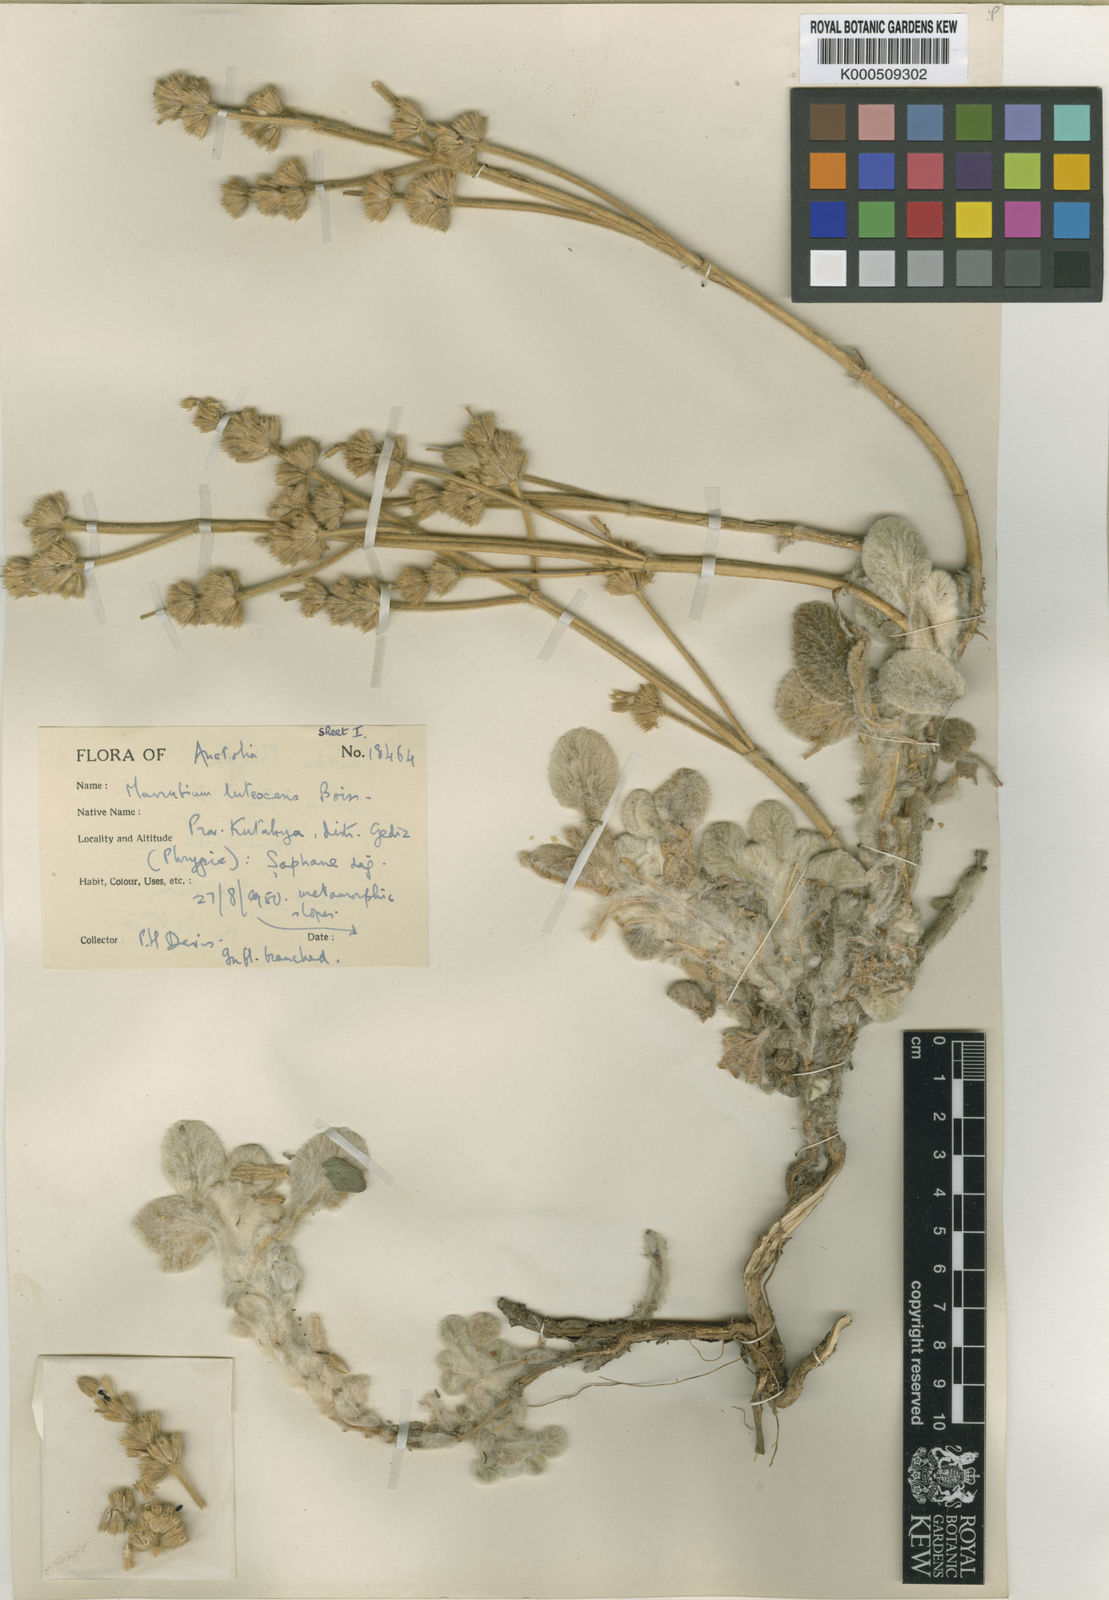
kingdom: Plantae
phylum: Tracheophyta
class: Magnoliopsida
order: Lamiales
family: Lamiaceae
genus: Marrubium
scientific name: Marrubium lutescens
